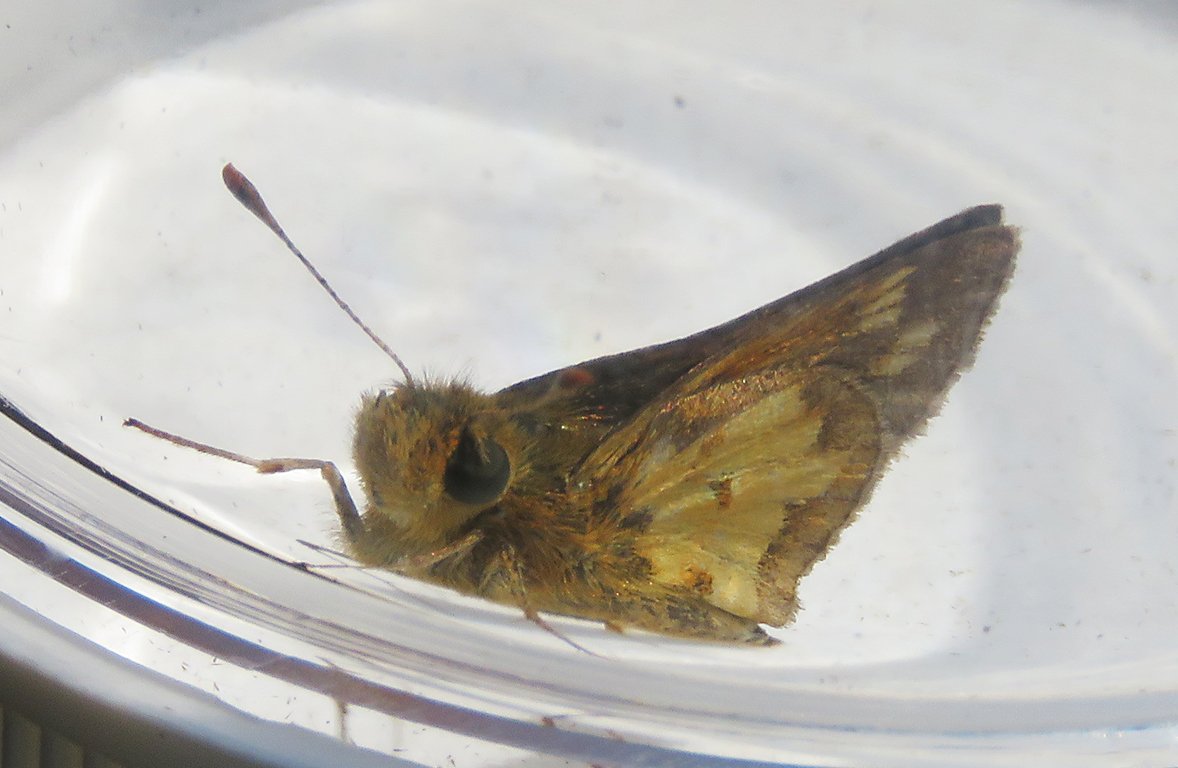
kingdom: Animalia
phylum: Arthropoda
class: Insecta
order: Lepidoptera
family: Hesperiidae
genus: Polites
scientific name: Polites coras
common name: Peck's Skipper
